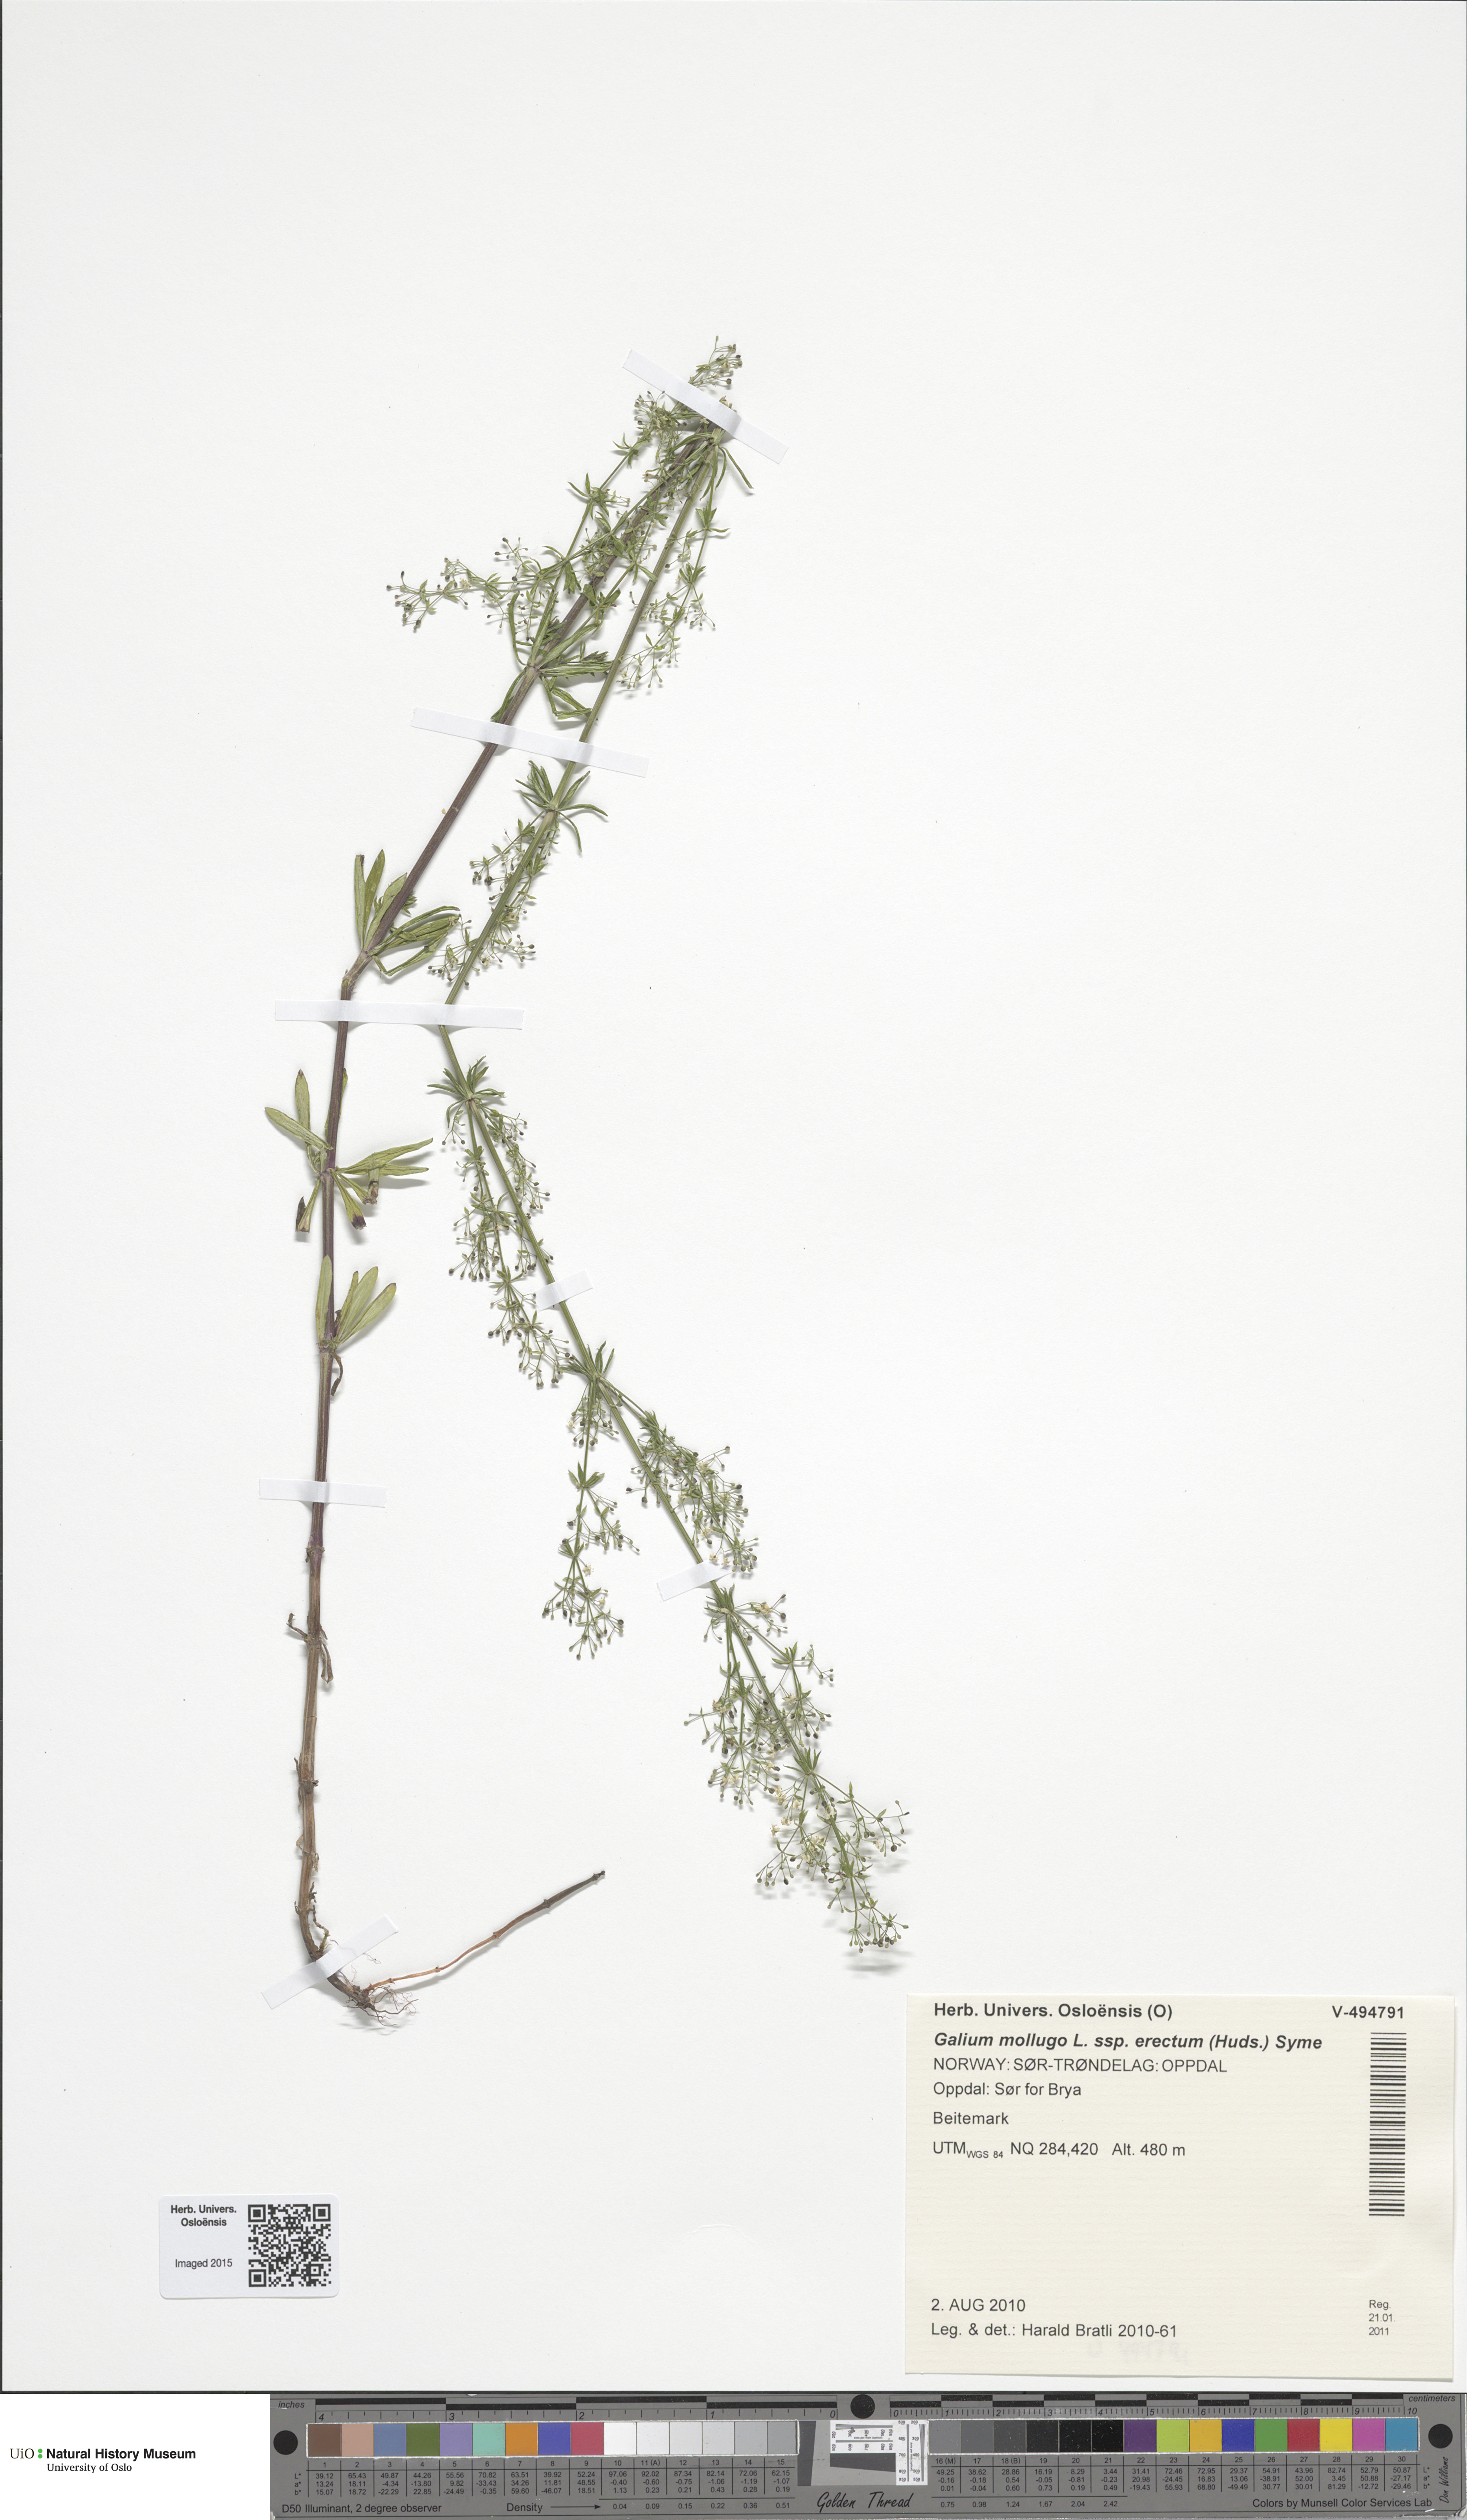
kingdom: Plantae
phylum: Tracheophyta
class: Magnoliopsida
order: Gentianales
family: Rubiaceae
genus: Galium
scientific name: Galium album
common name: White bedstraw
